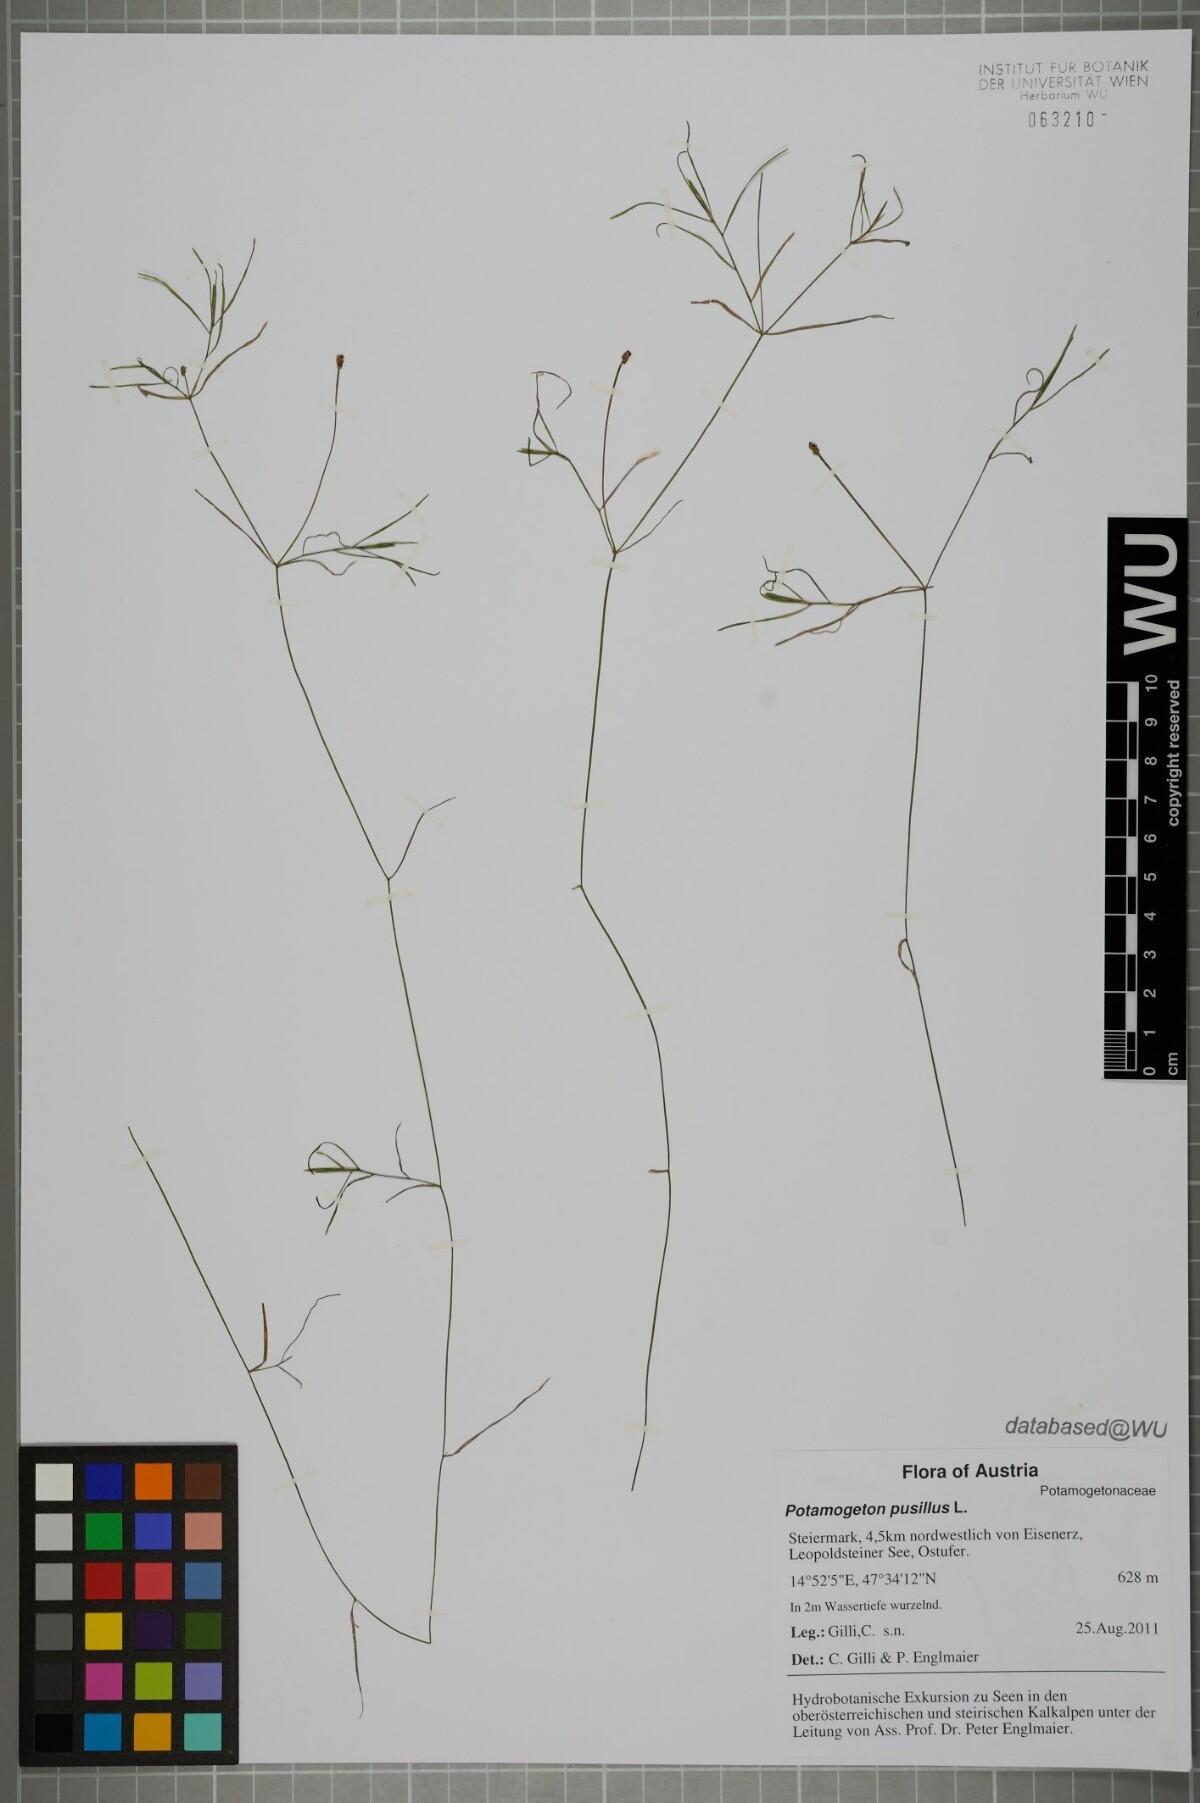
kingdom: Plantae
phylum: Tracheophyta
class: Liliopsida
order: Alismatales
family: Potamogetonaceae
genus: Potamogeton
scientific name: Potamogeton pusillus
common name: Lesser pondweed
